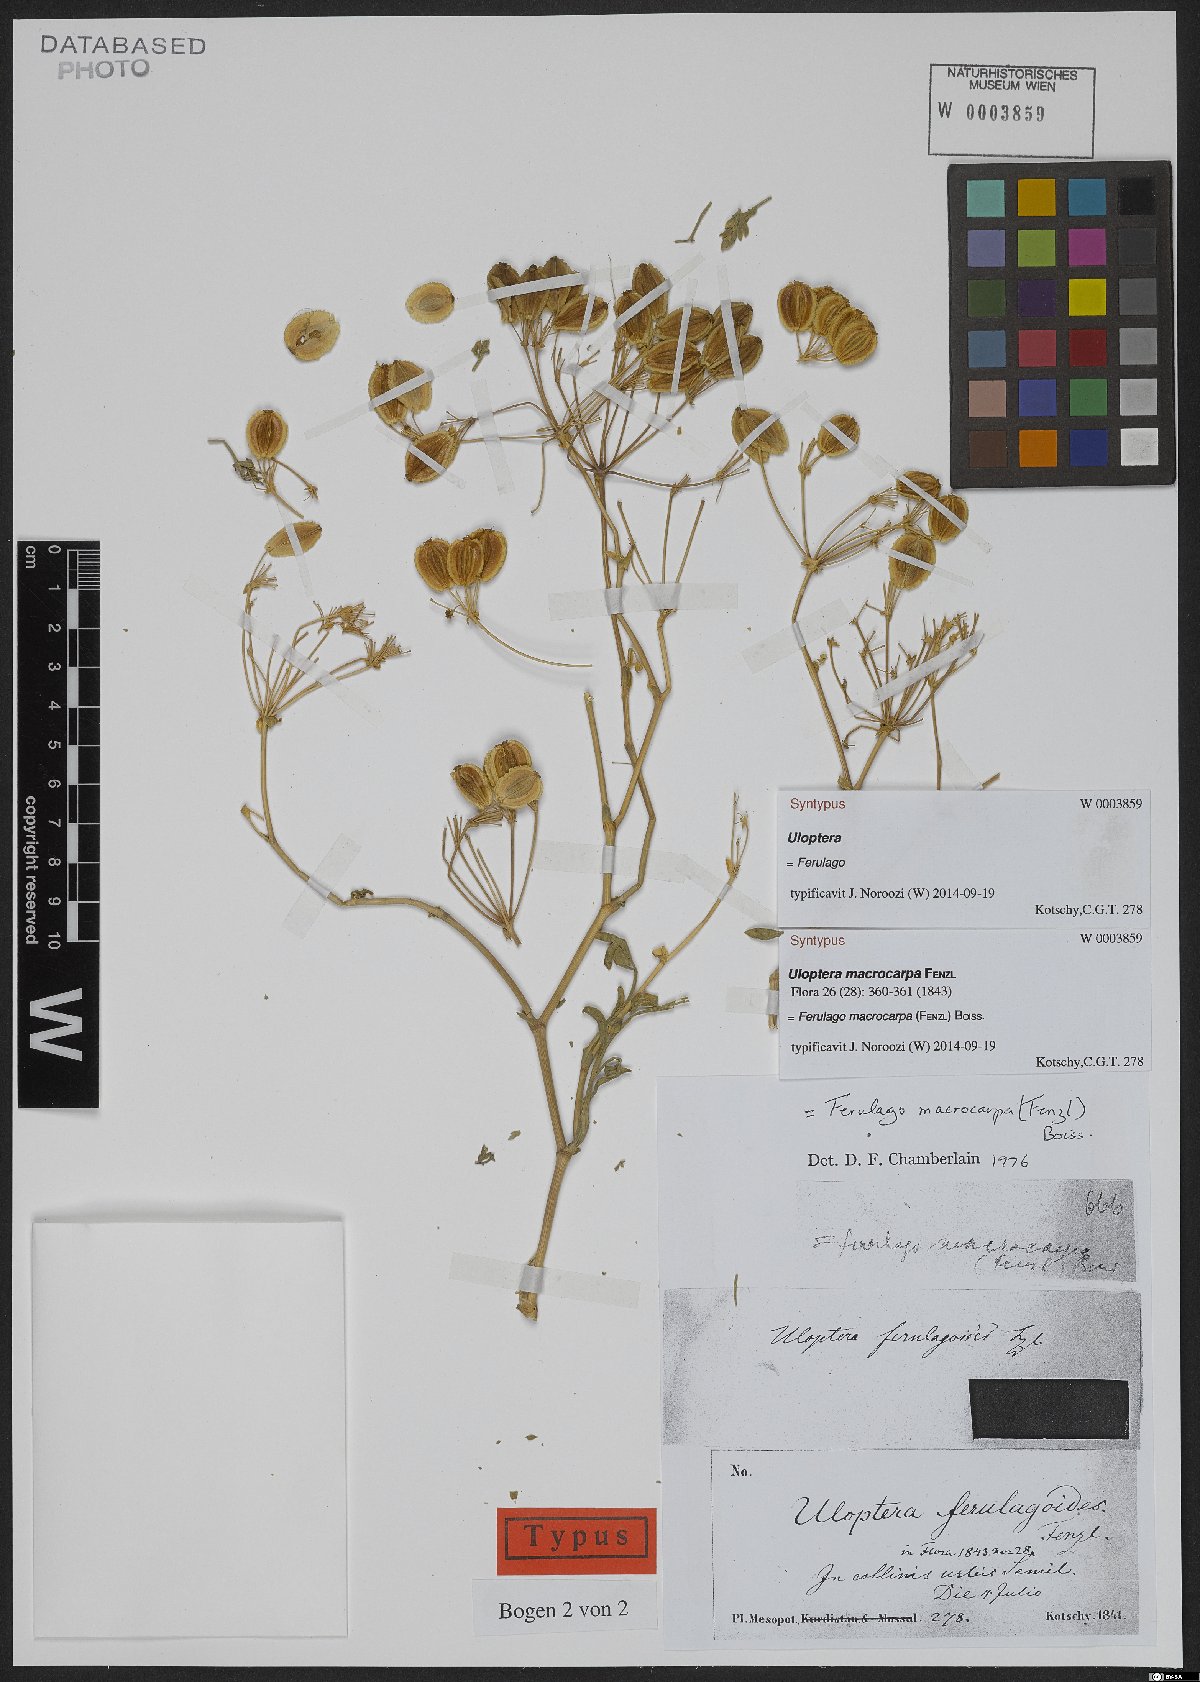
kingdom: Plantae
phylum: Tracheophyta
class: Magnoliopsida
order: Apiales
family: Apiaceae
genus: Ferulago
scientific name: Ferulago macrocarpa
